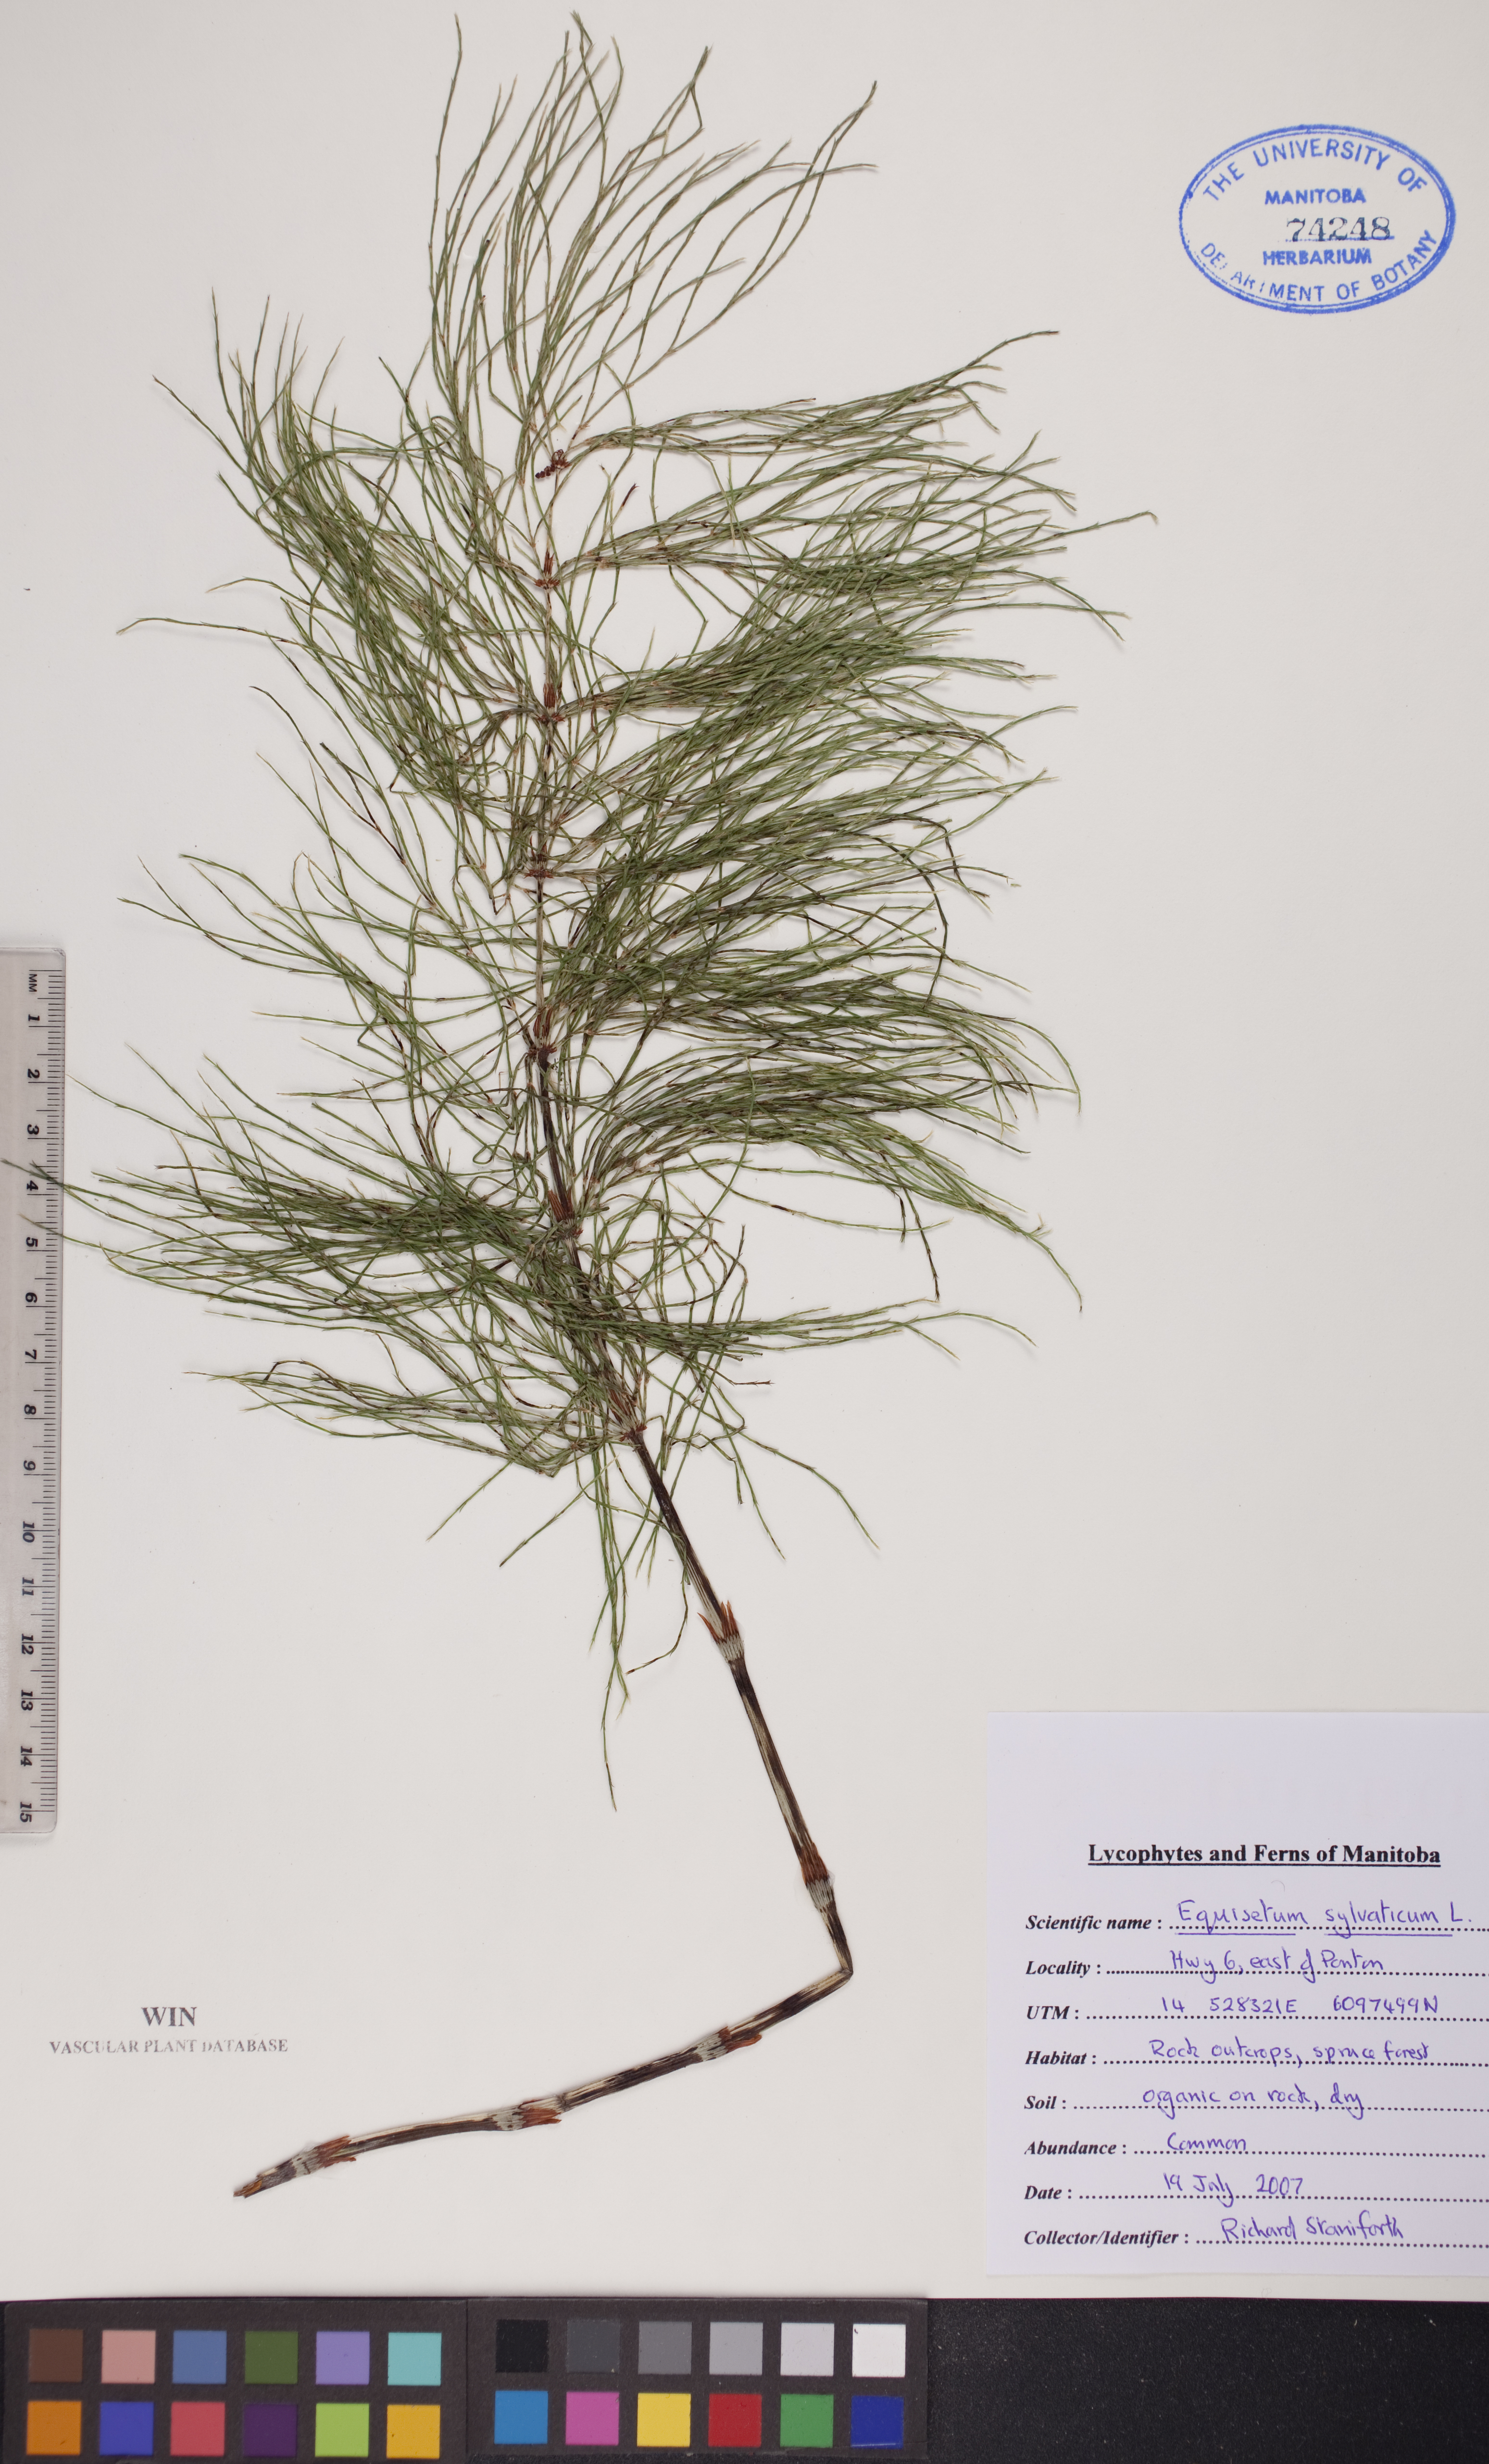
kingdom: Plantae
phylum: Tracheophyta
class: Polypodiopsida
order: Equisetales
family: Equisetaceae
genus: Equisetum
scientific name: Equisetum sylvaticum
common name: Wood horsetail
